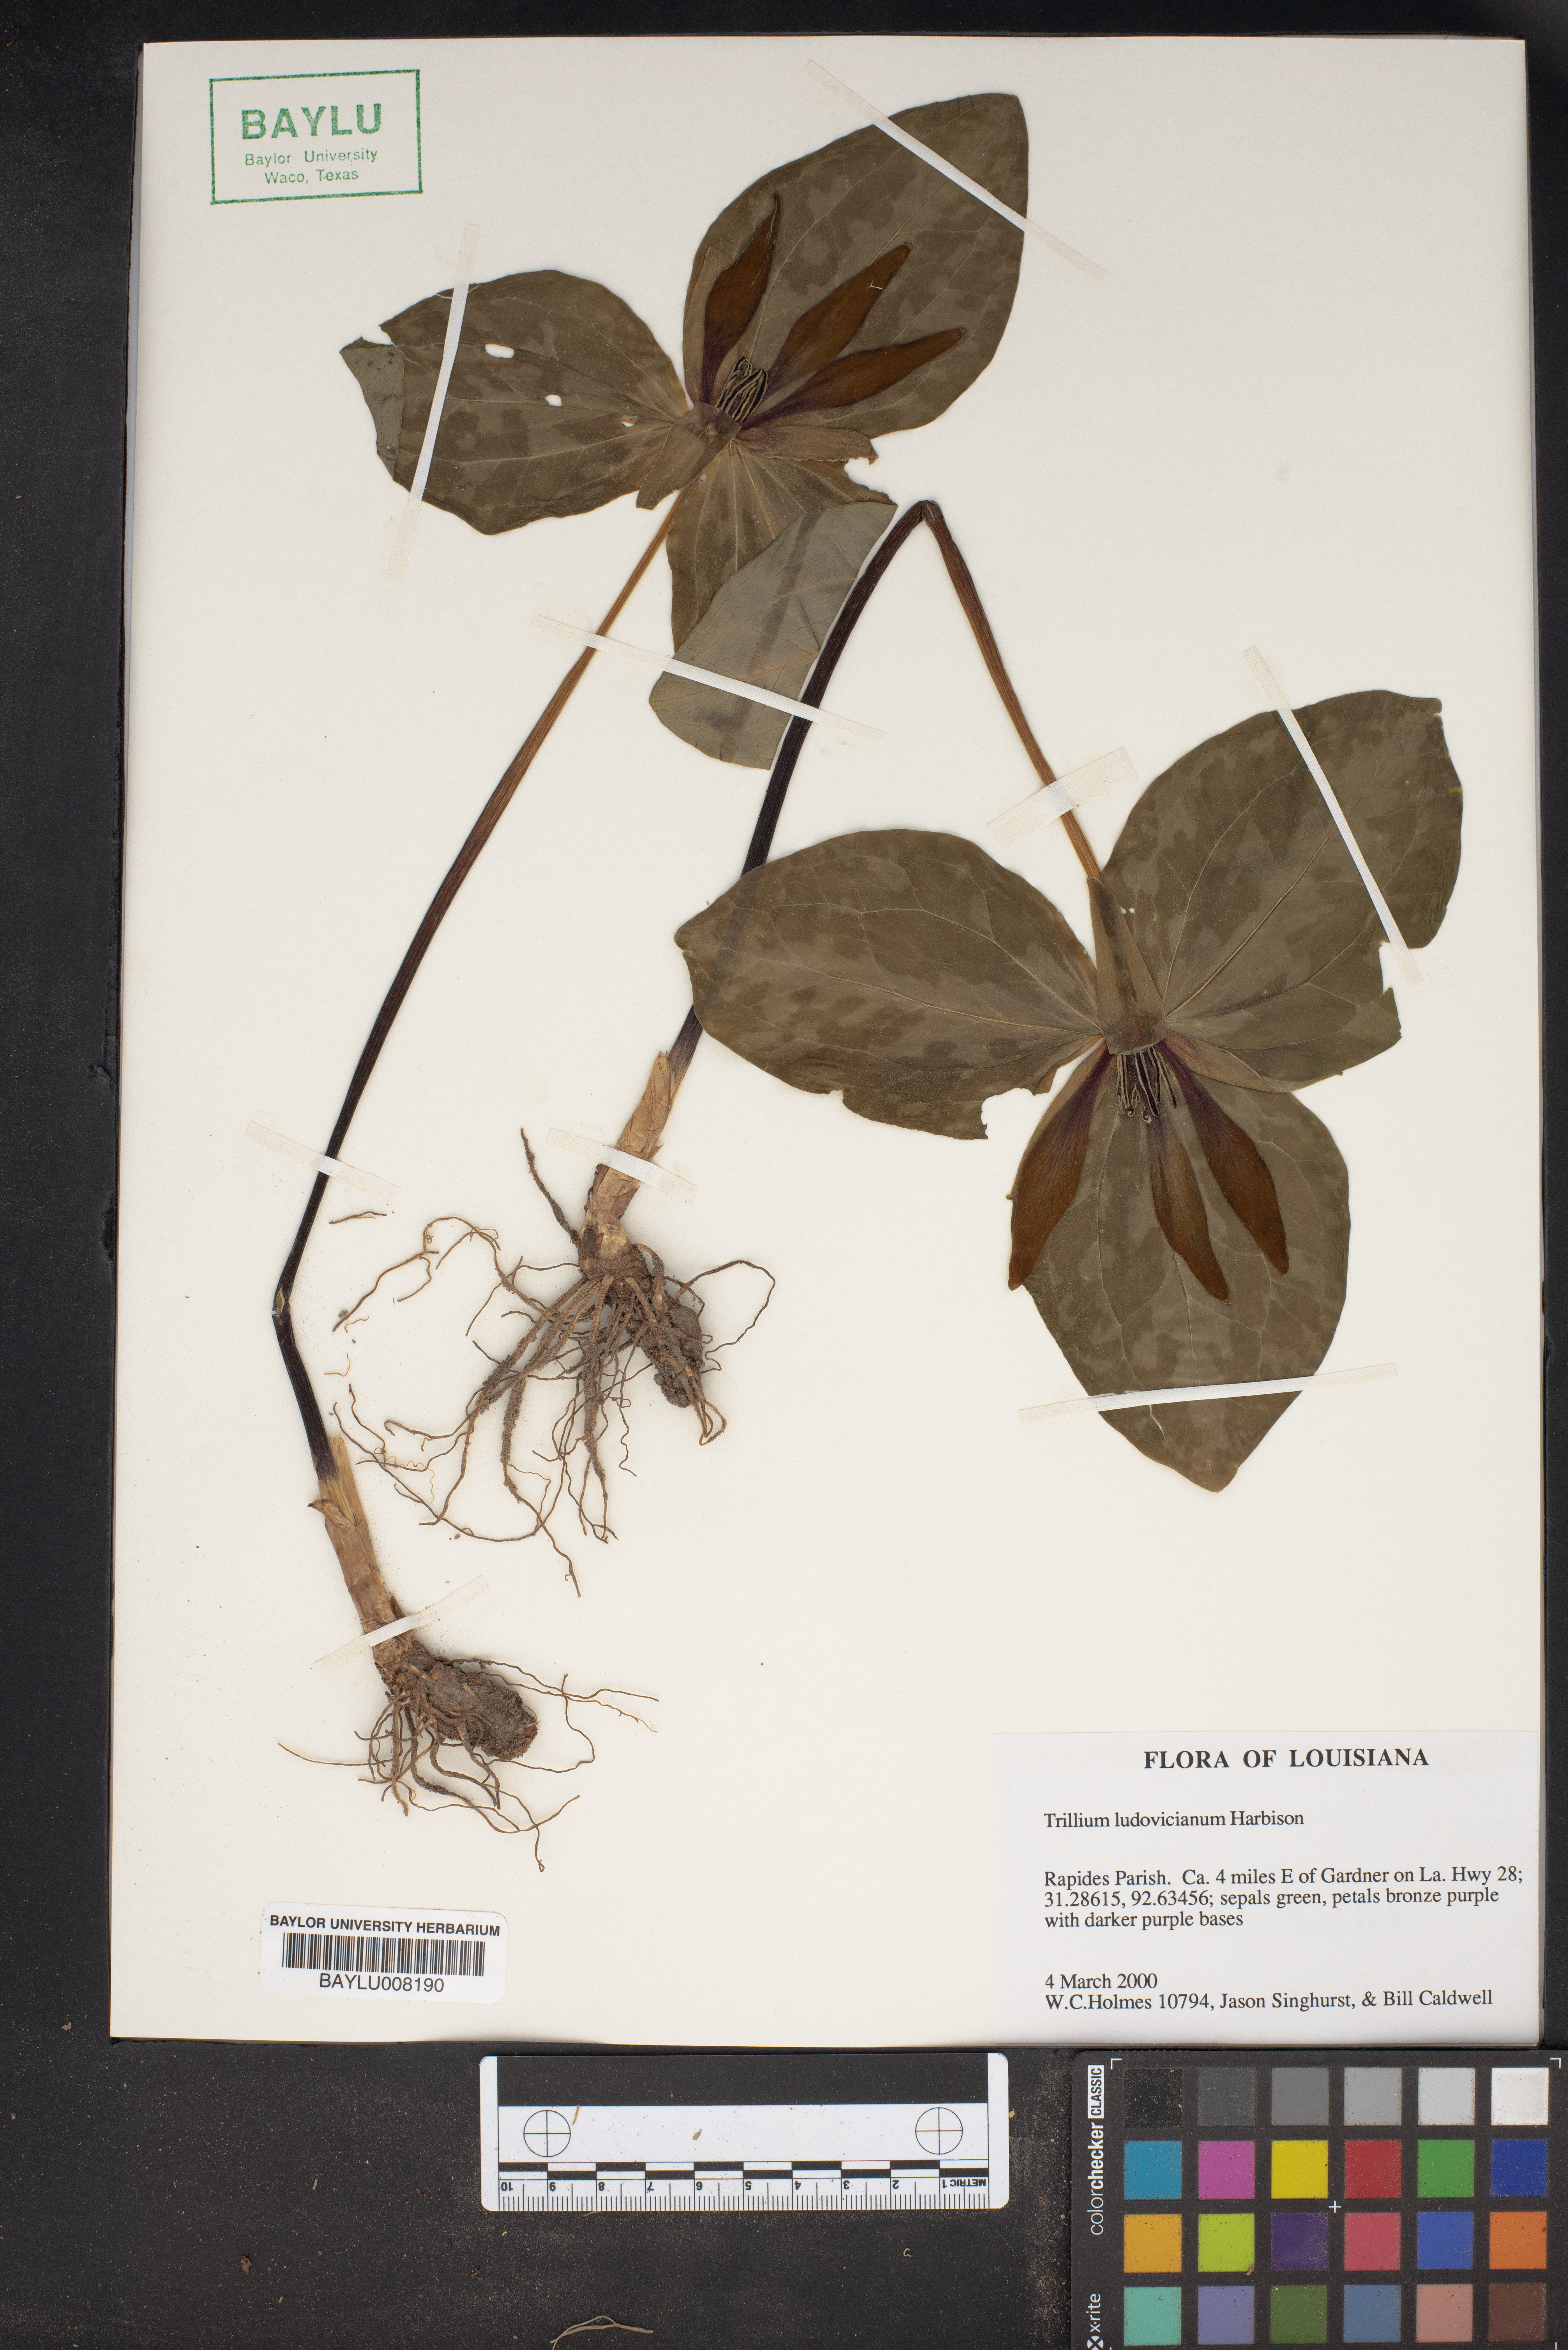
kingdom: Plantae
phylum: Tracheophyta
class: Liliopsida
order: Liliales
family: Melanthiaceae
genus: Trillium
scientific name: Trillium ludovicianum
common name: Louisiana toadshade
